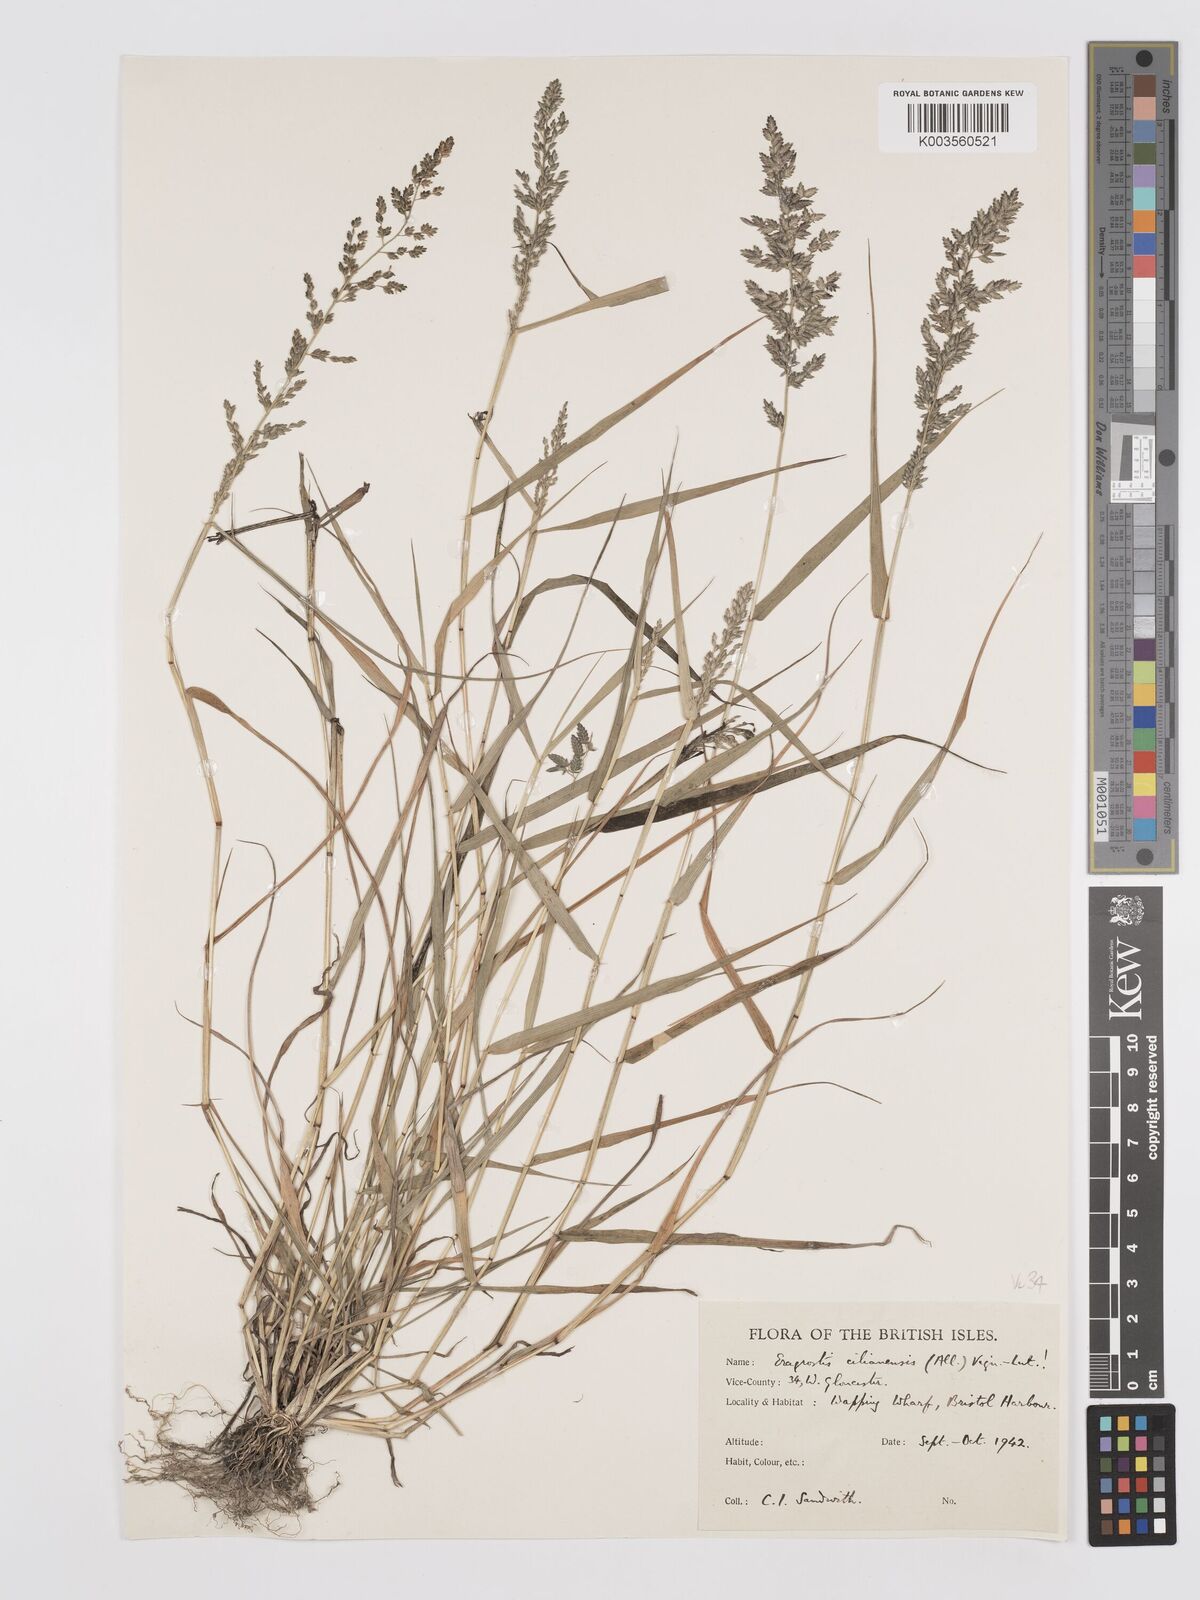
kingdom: Plantae
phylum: Tracheophyta
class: Liliopsida
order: Poales
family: Poaceae
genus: Eragrostis
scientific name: Eragrostis cilianensis
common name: Stinkgrass
